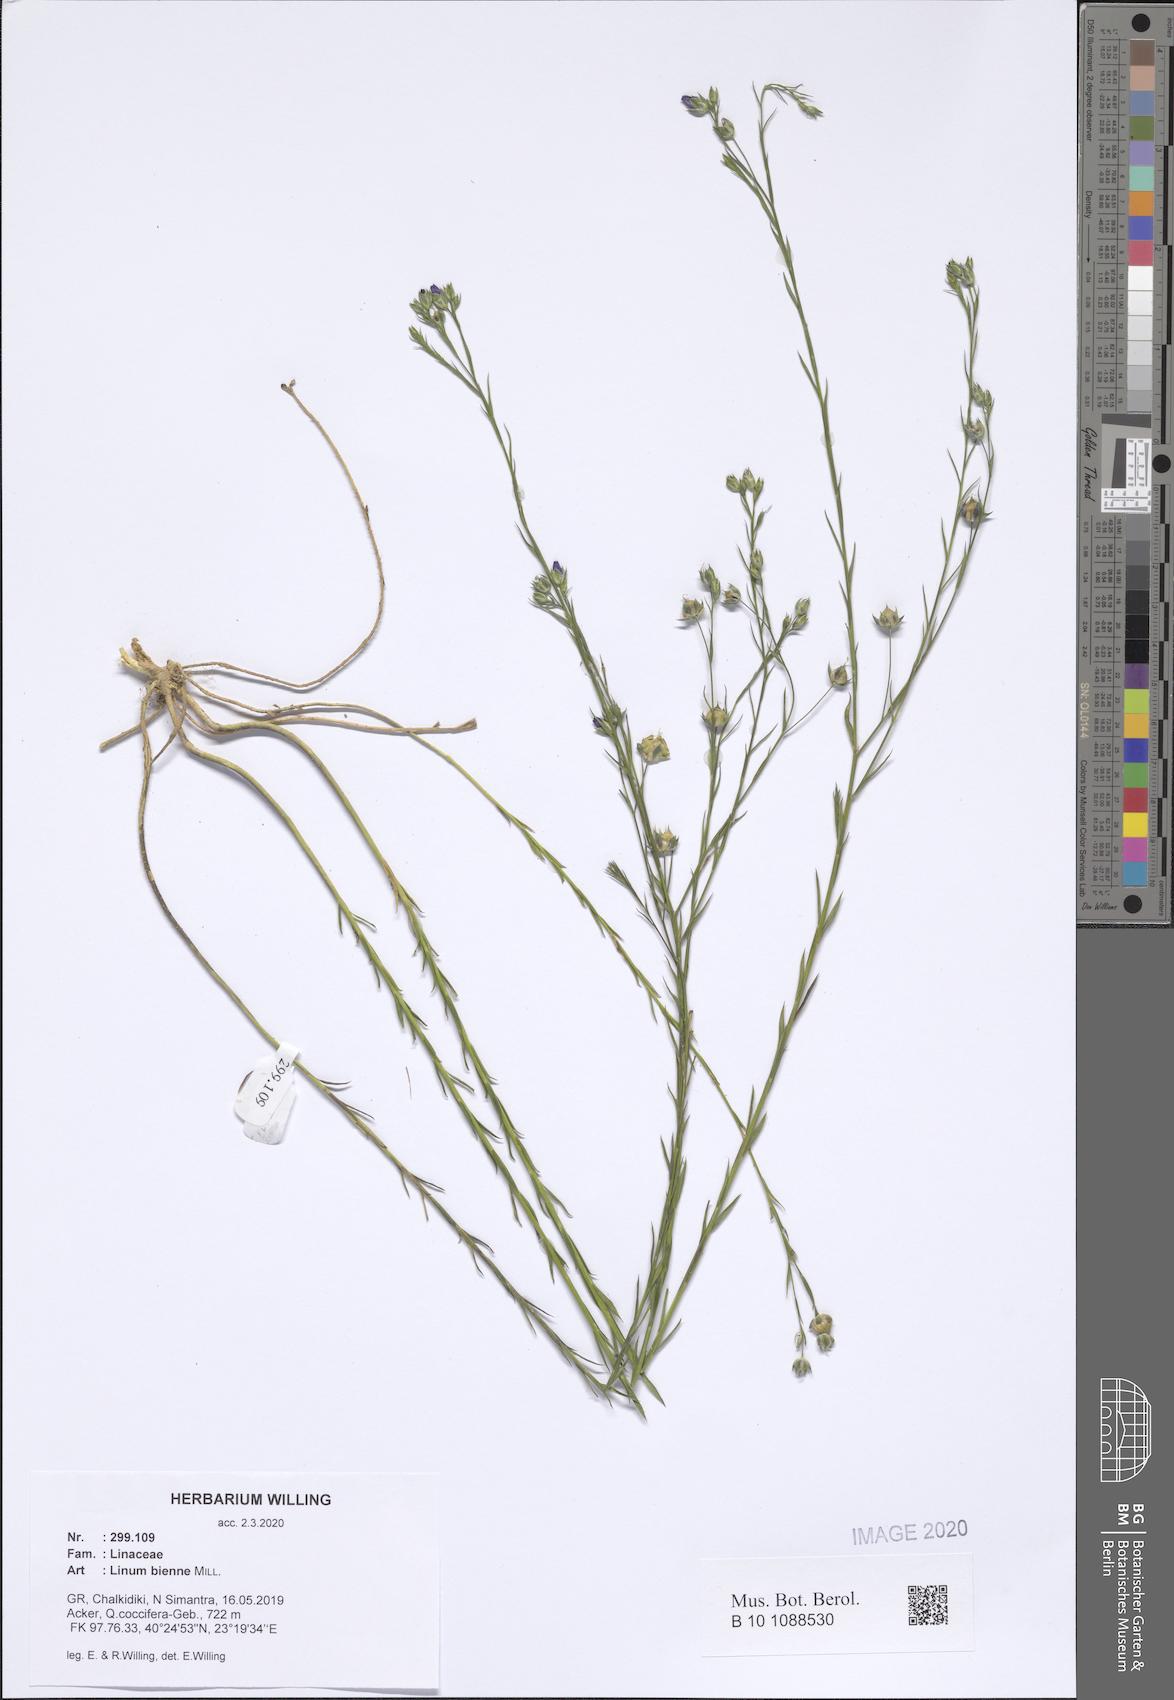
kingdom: Plantae
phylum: Tracheophyta
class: Magnoliopsida
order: Malpighiales
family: Linaceae
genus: Linum
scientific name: Linum bienne
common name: Pale flax
